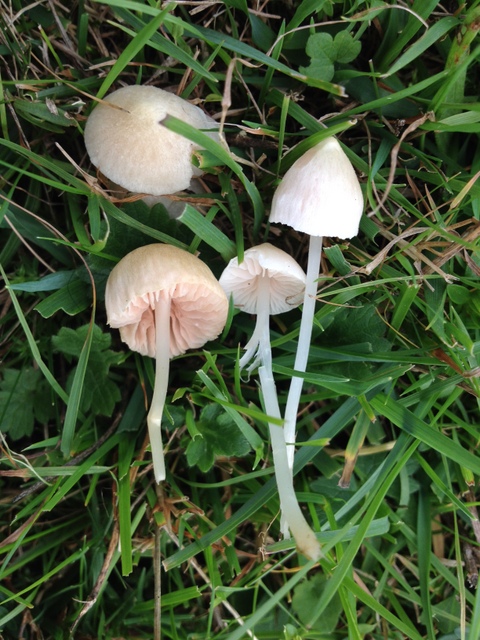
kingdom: Fungi
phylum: Basidiomycota
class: Agaricomycetes
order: Agaricales
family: Entolomataceae
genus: Entoloma
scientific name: Entoloma sericellum
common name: silkehvid rødblad
